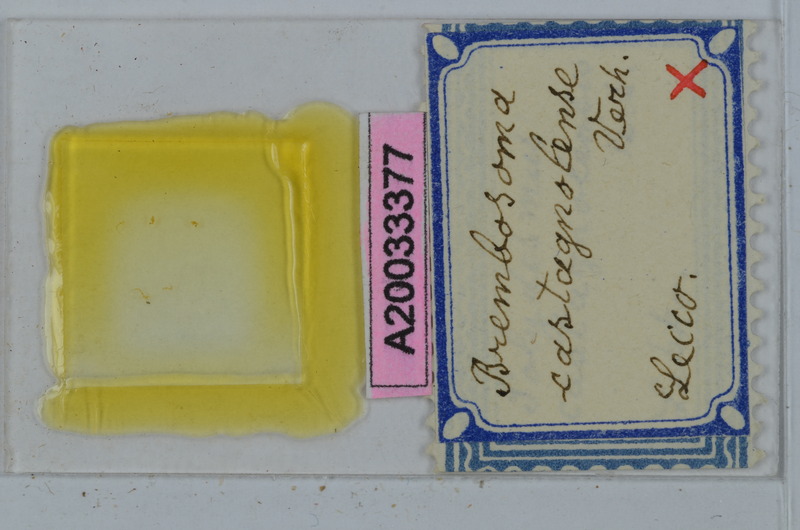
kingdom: Animalia
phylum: Arthropoda
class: Diplopoda
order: Polydesmida
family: Polydesmidae
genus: Brembosoma
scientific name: Brembosoma castagnolense
